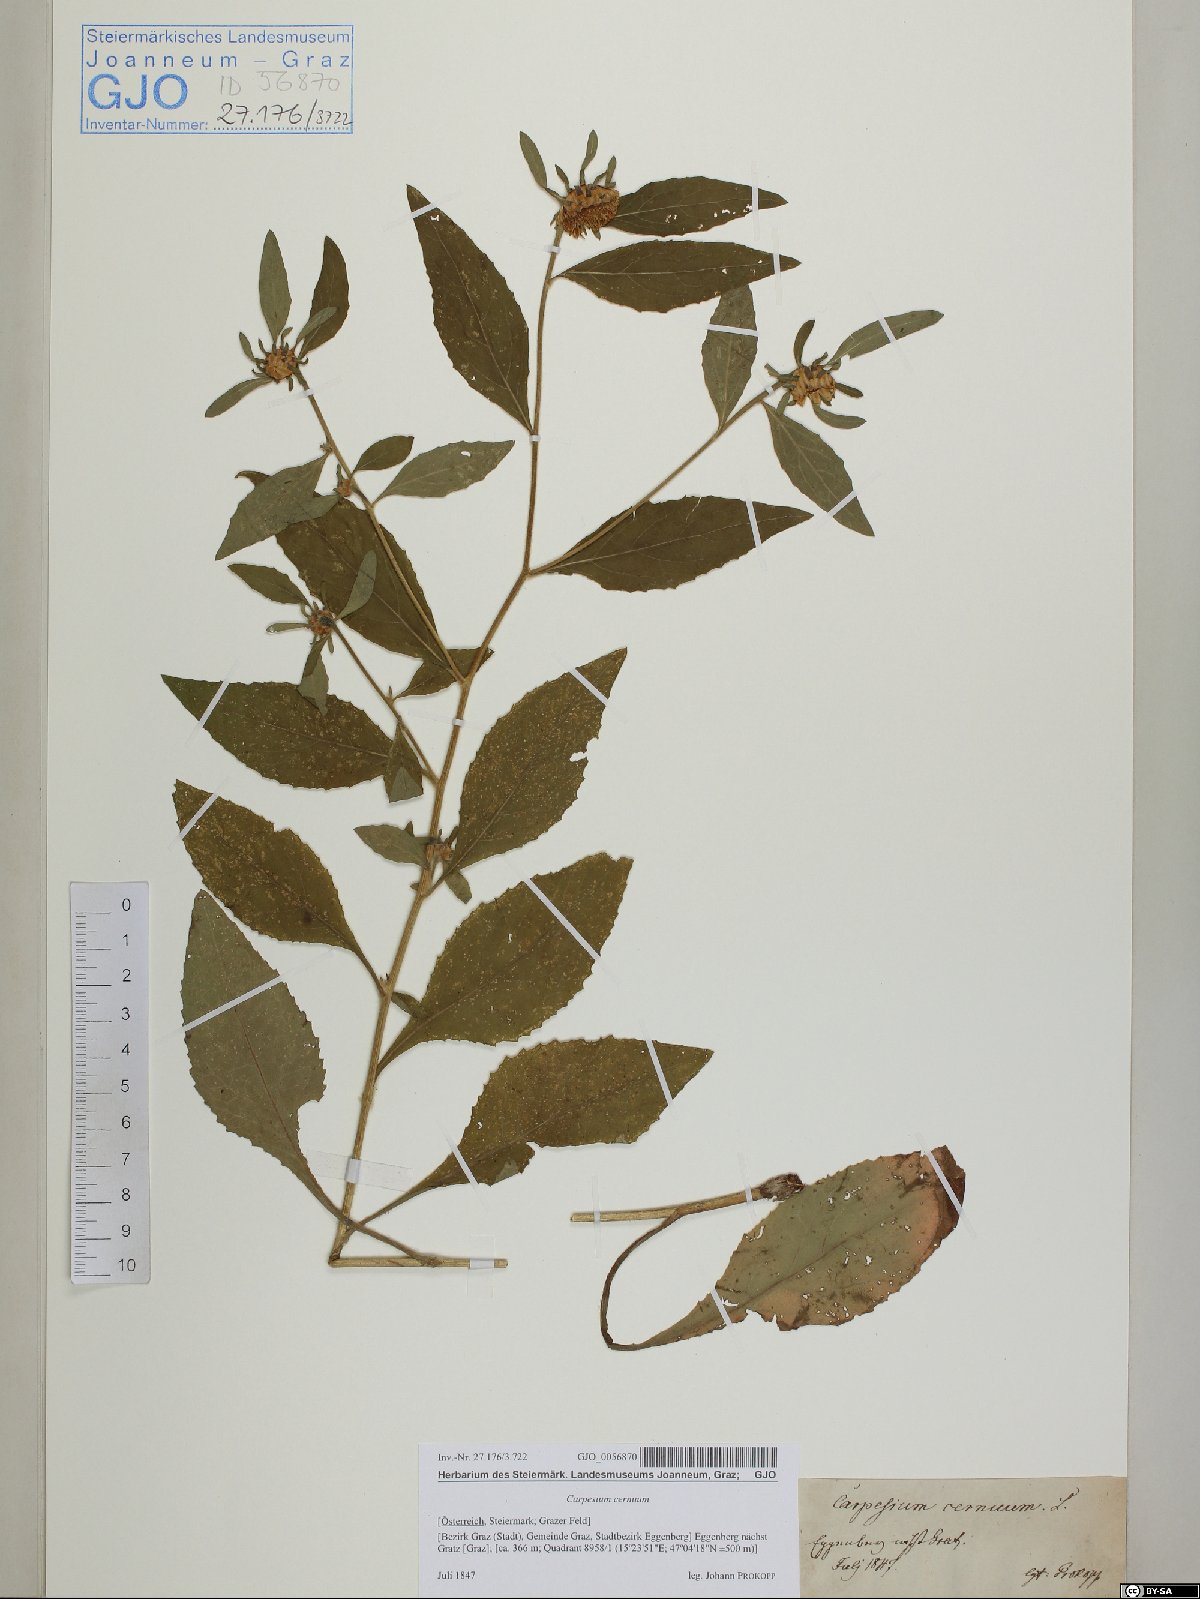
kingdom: Plantae
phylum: Tracheophyta
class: Magnoliopsida
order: Asterales
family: Asteraceae
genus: Carpesium
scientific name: Carpesium cernuum
